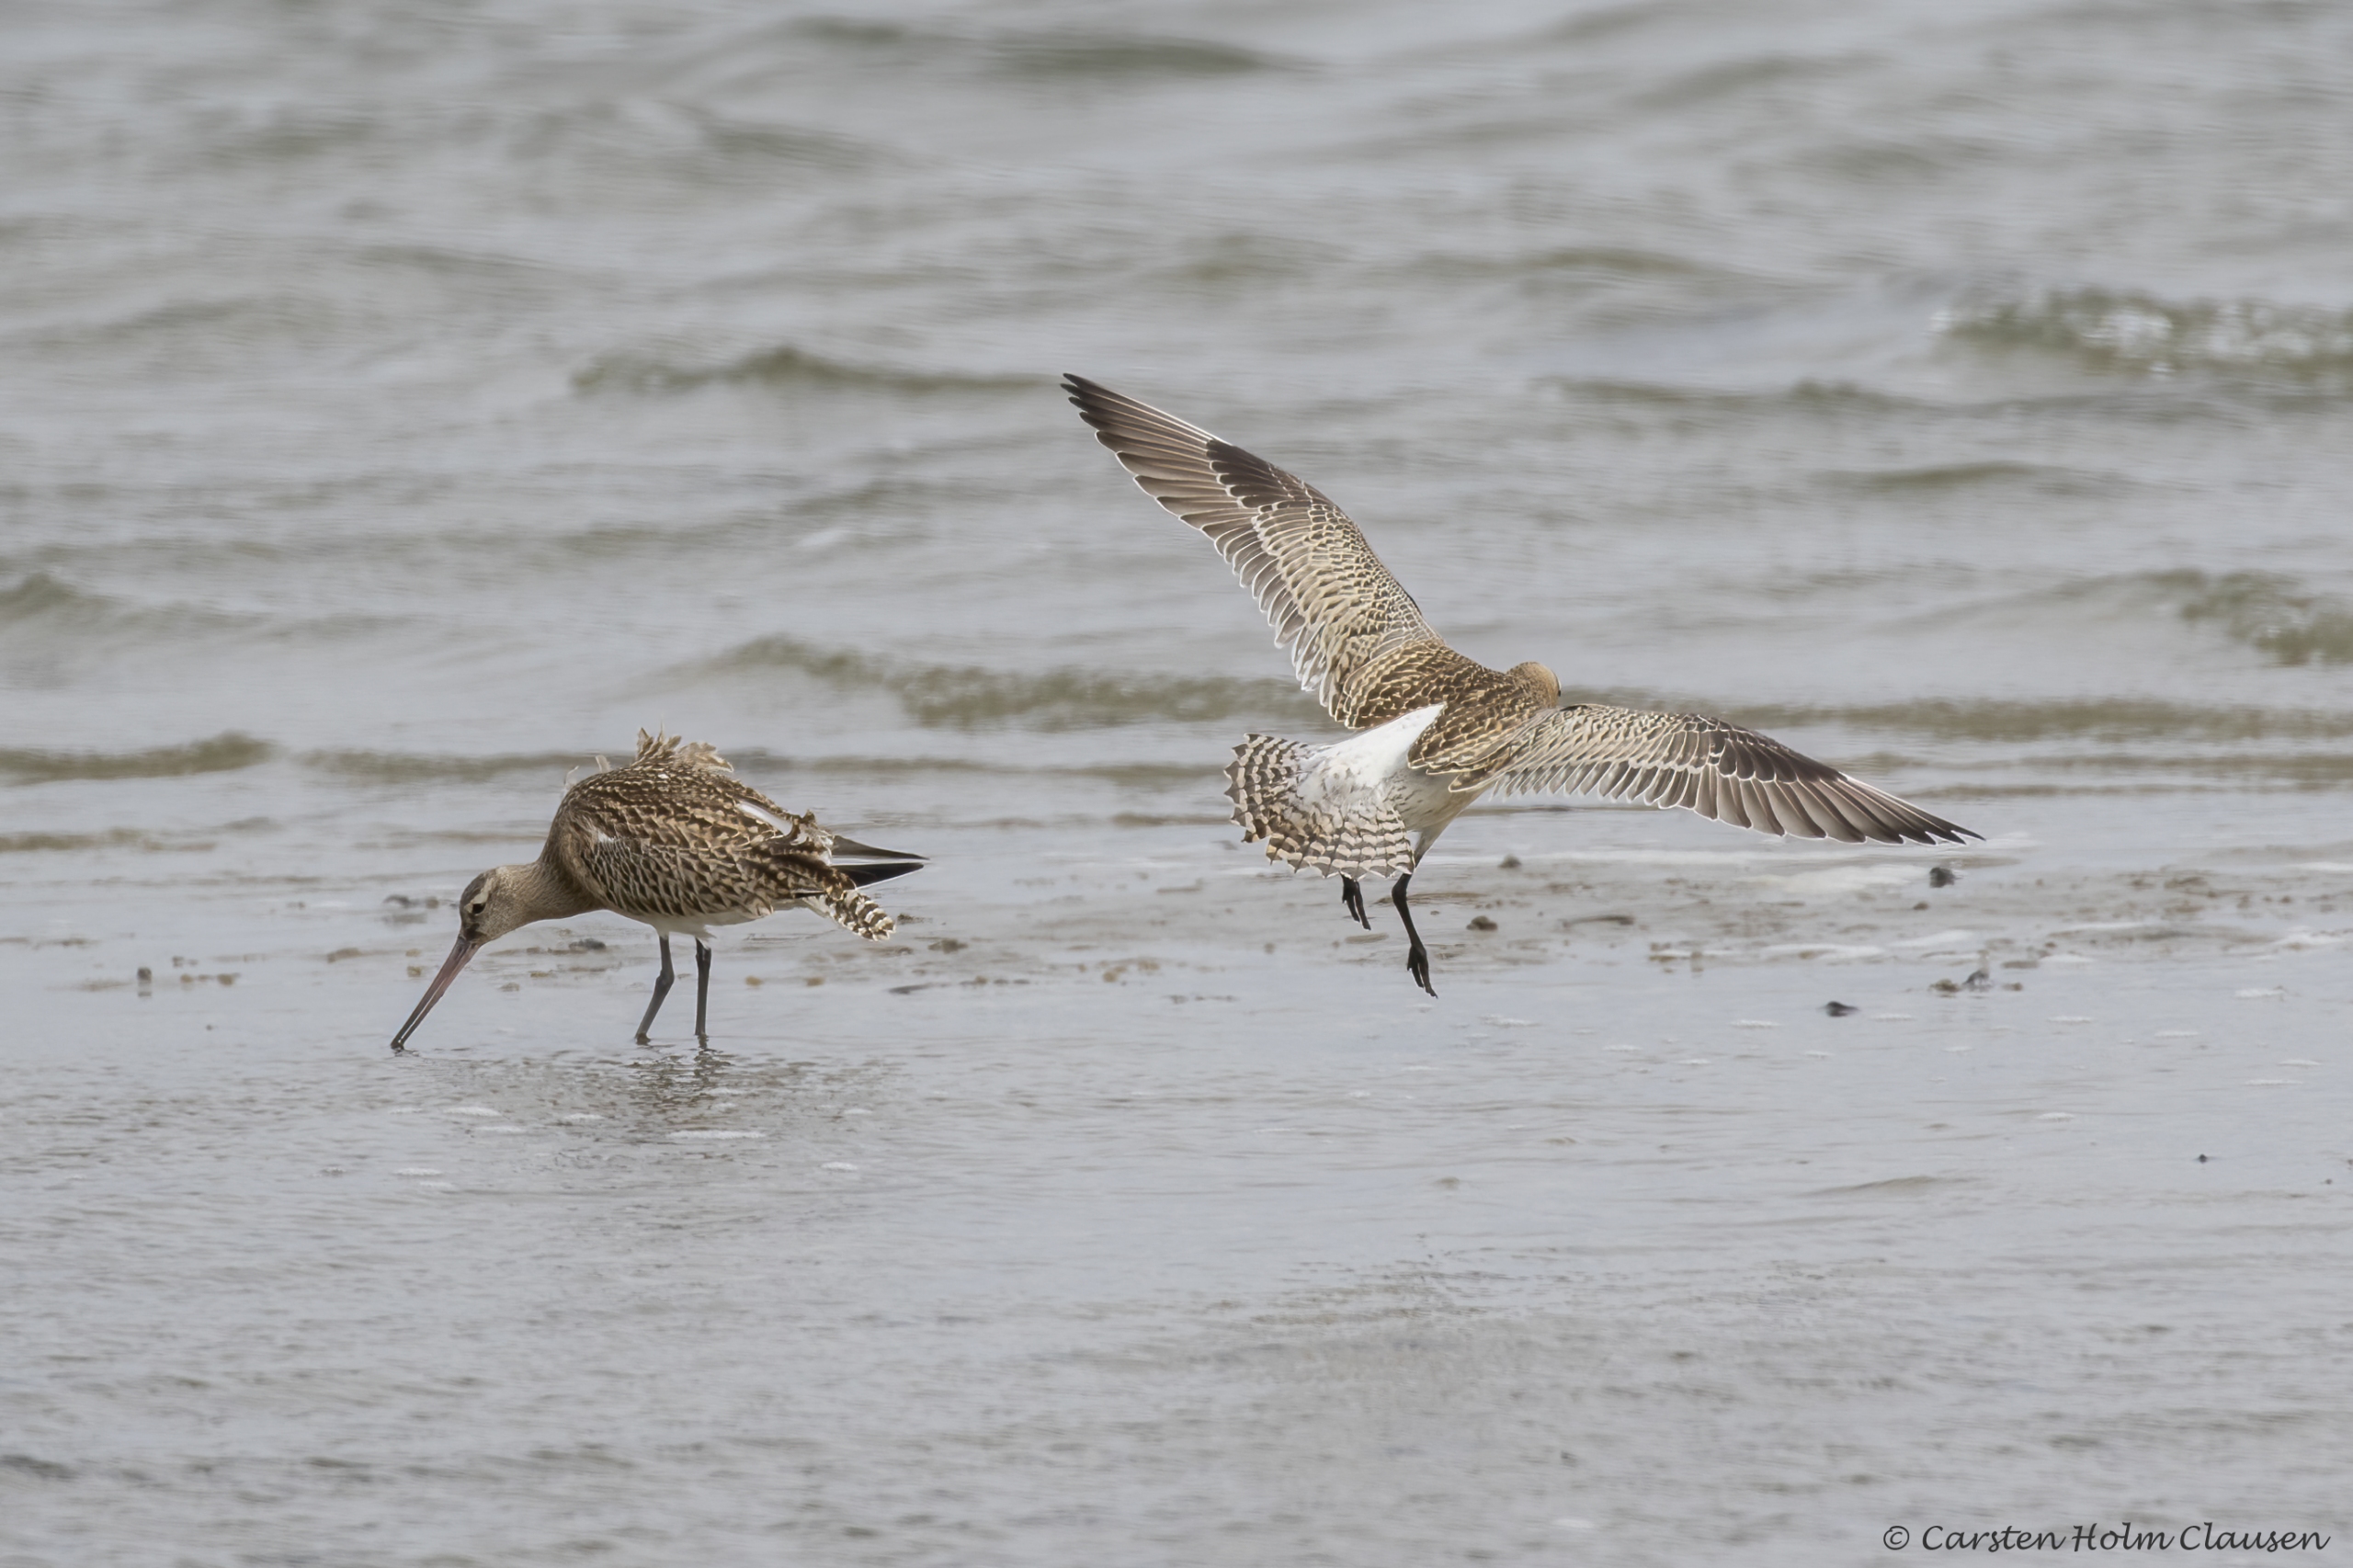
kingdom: Animalia
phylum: Chordata
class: Aves
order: Charadriiformes
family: Scolopacidae
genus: Limosa
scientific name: Limosa lapponica
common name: Lille kobbersneppe
